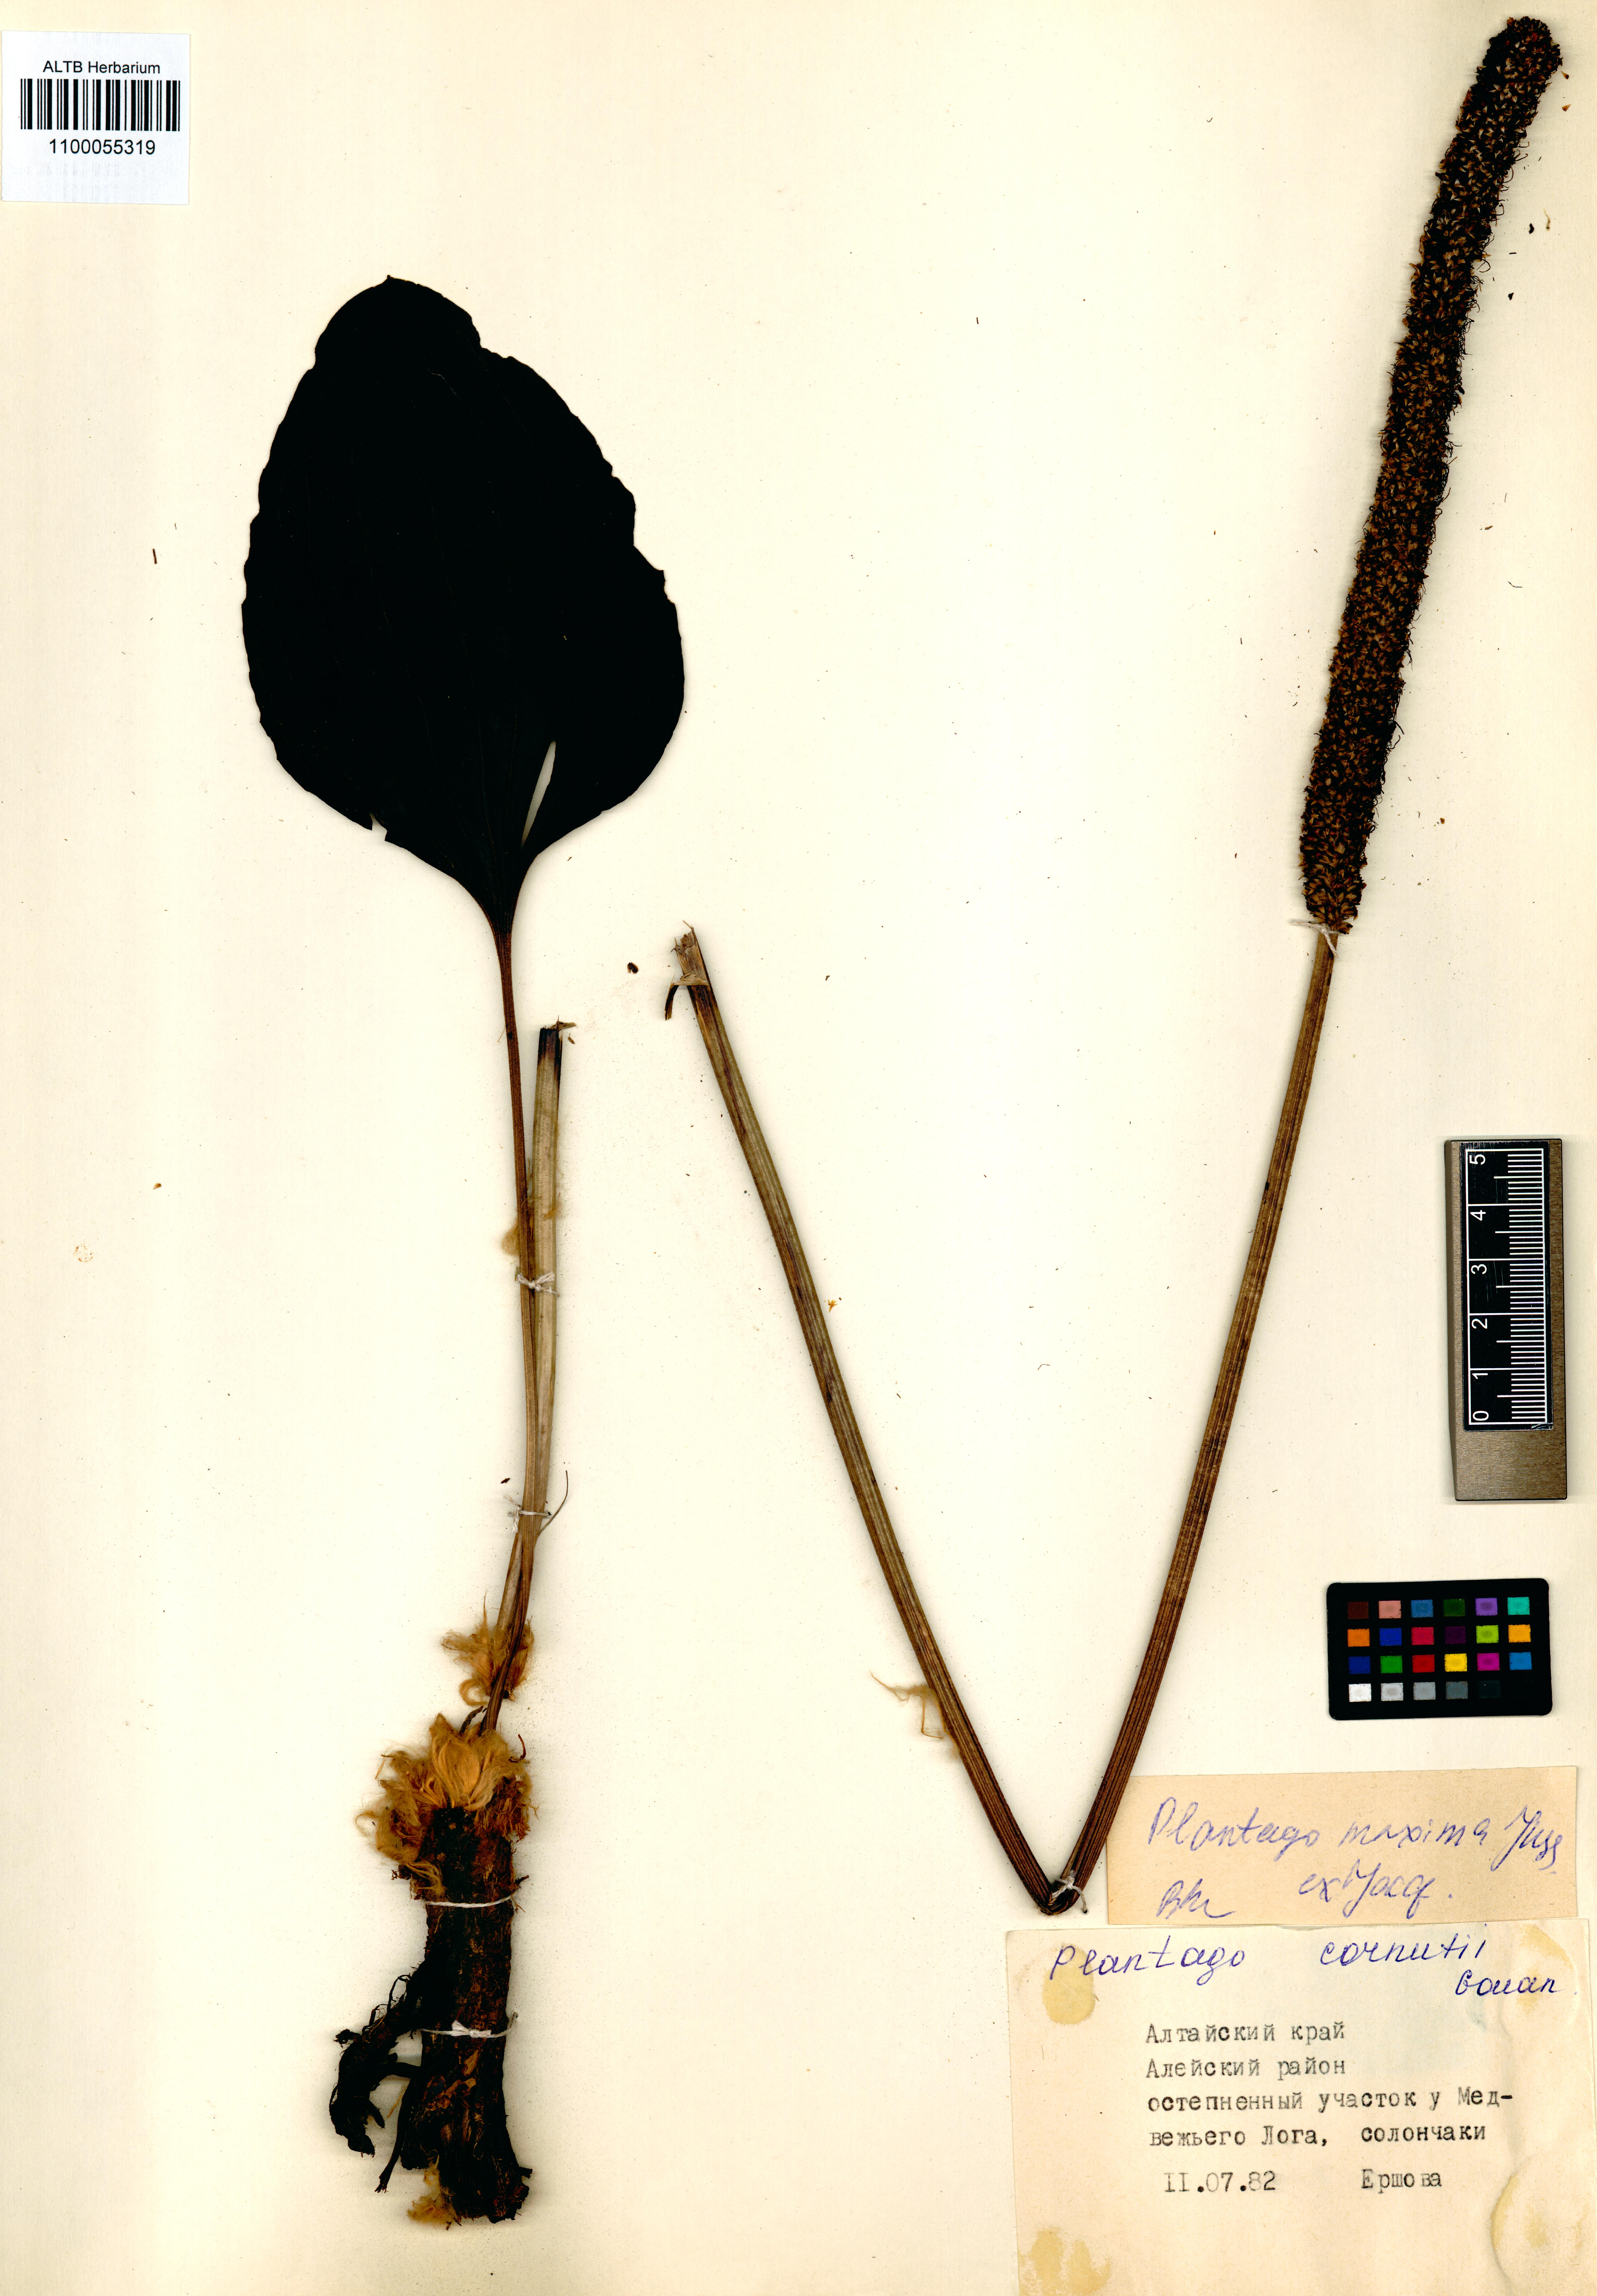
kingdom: Plantae
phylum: Tracheophyta
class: Magnoliopsida
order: Lamiales
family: Plantaginaceae
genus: Plantago
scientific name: Plantago maxima
